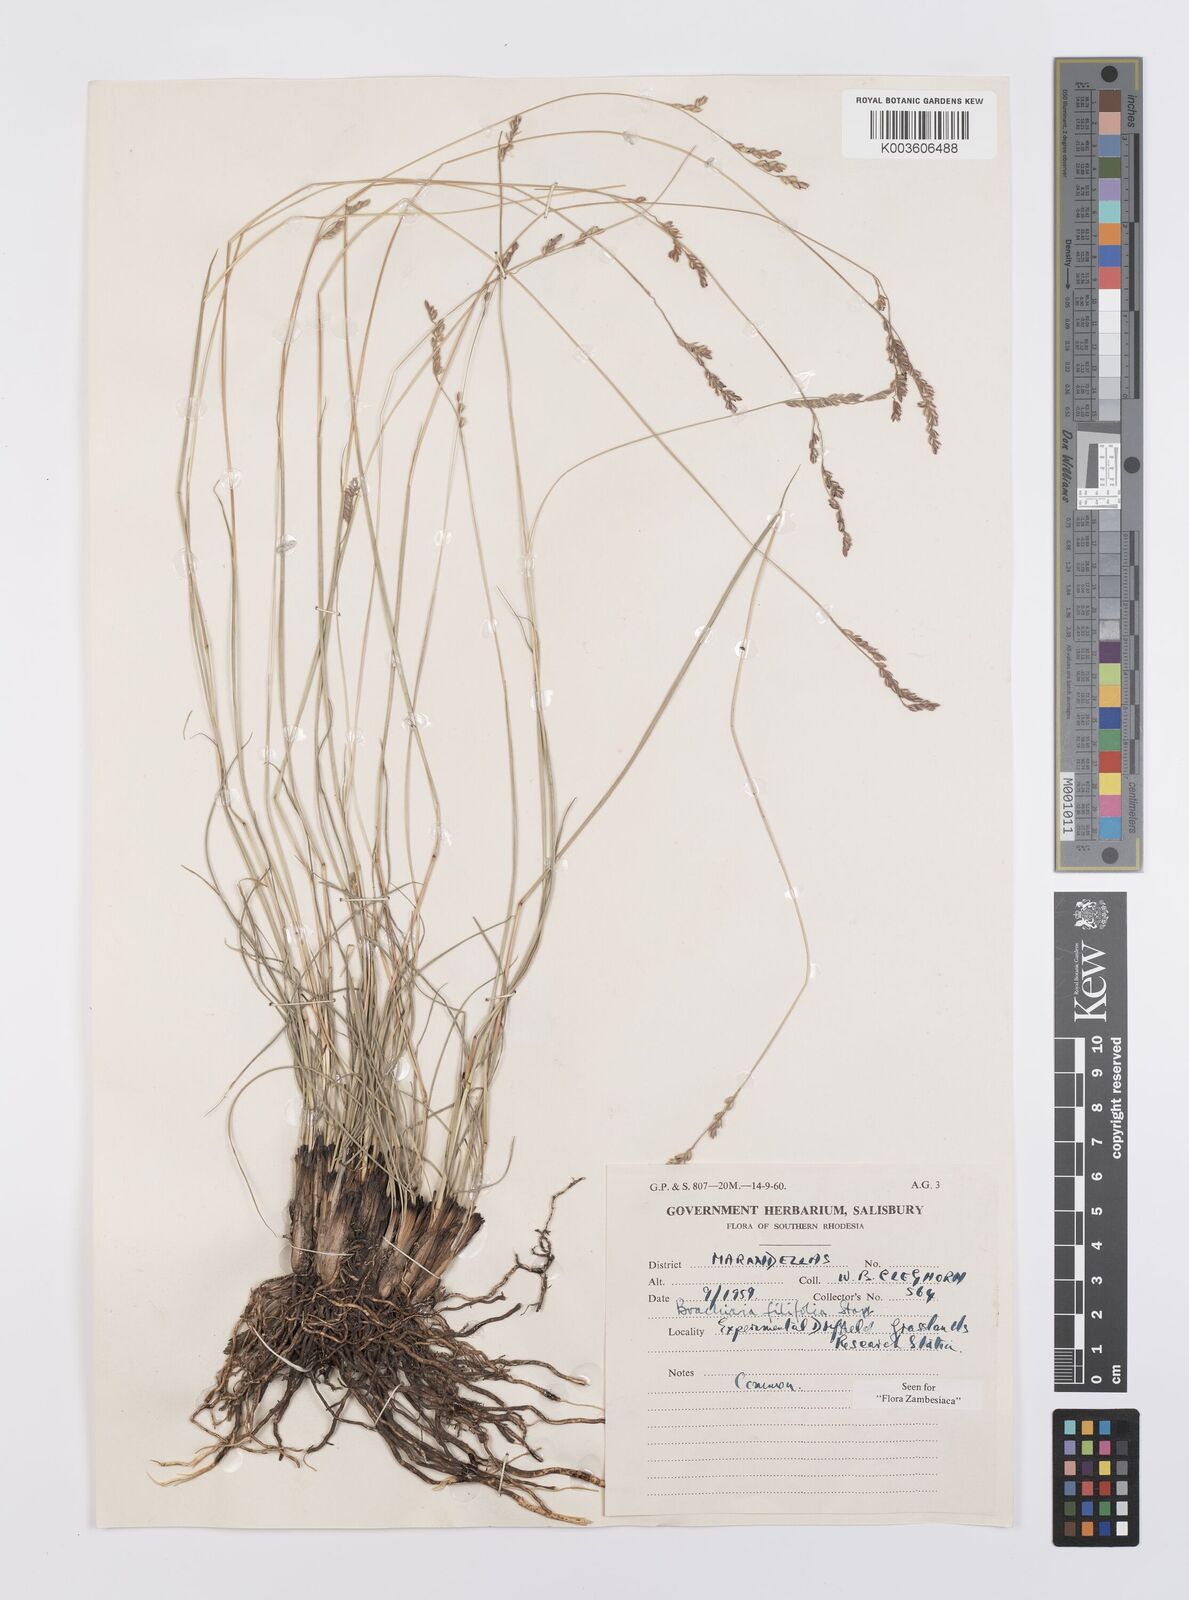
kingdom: Plantae
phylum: Tracheophyta
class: Liliopsida
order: Poales
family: Poaceae
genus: Urochloa
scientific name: Urochloa subulifolia
